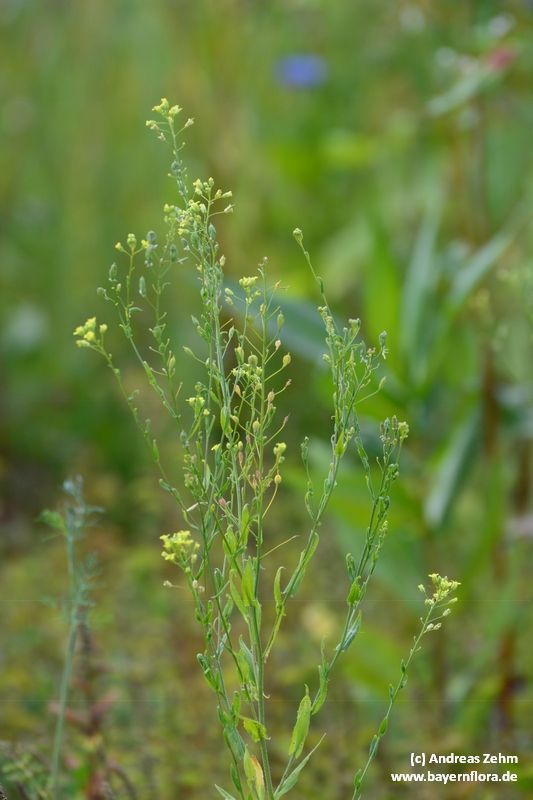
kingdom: Plantae
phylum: Tracheophyta
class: Magnoliopsida
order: Brassicales
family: Brassicaceae
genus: Camelina
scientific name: Camelina sativa
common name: Gold-of-pleasure
